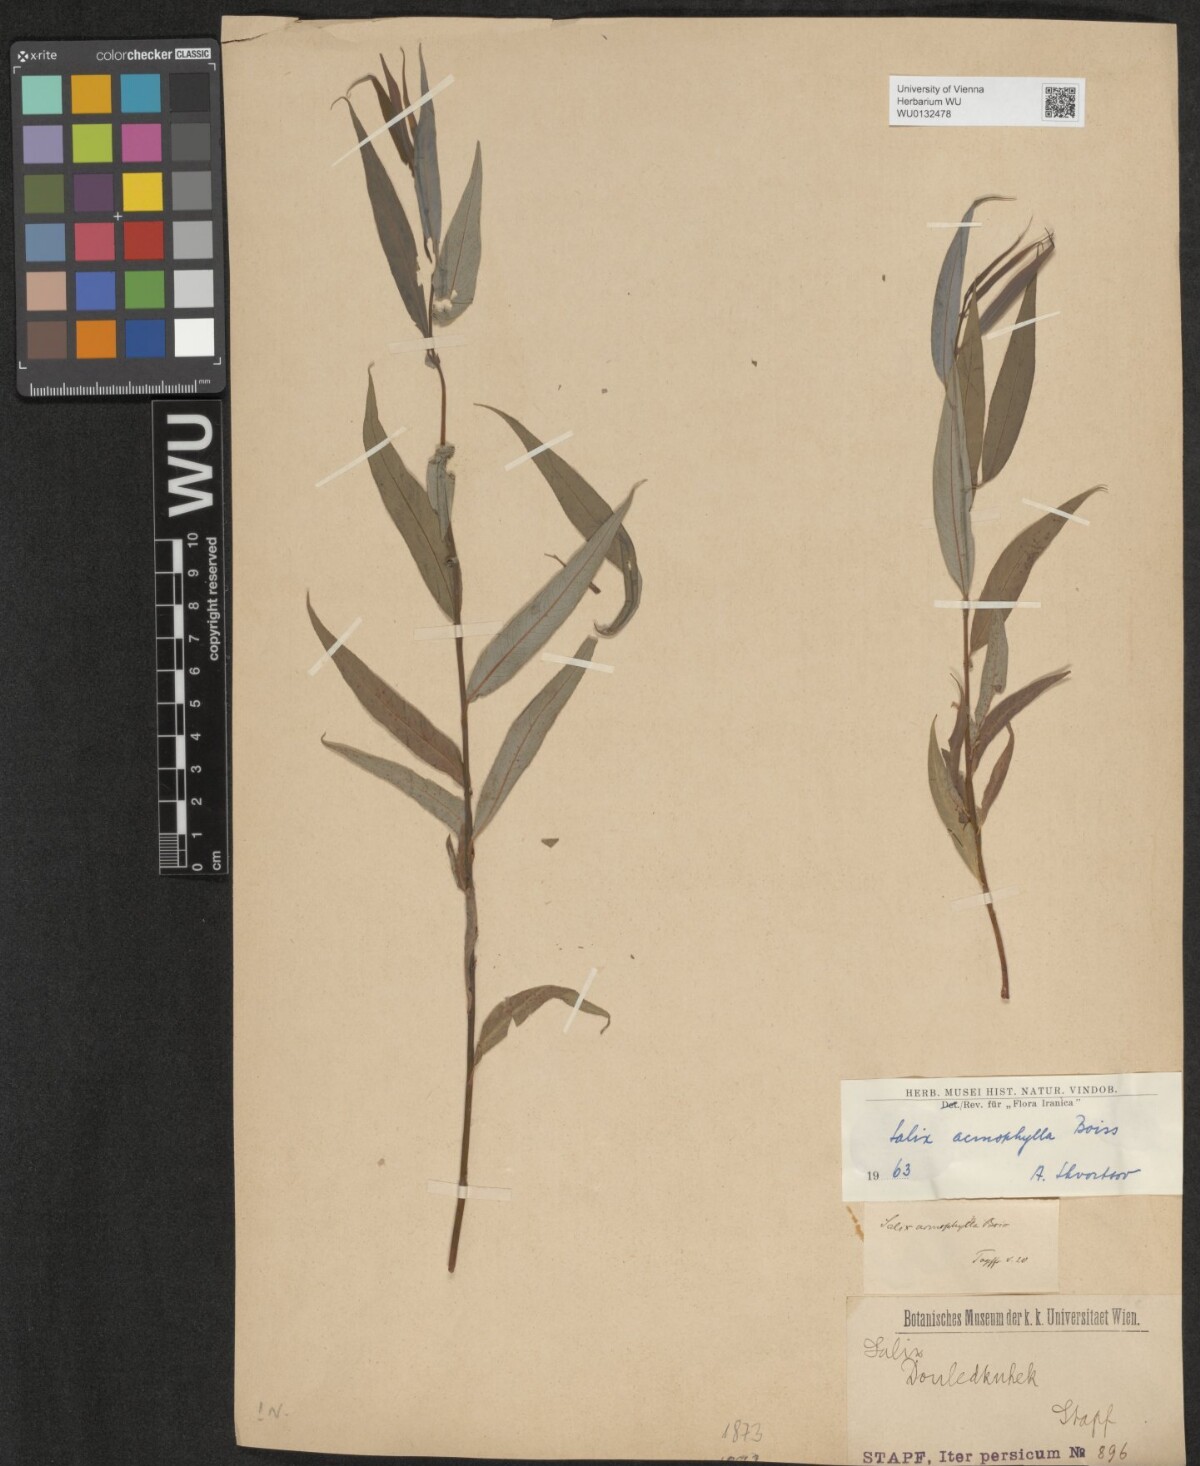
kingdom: Plantae
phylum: Tracheophyta
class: Magnoliopsida
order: Malpighiales
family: Salicaceae
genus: Salix
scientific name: Salix acmophylla
